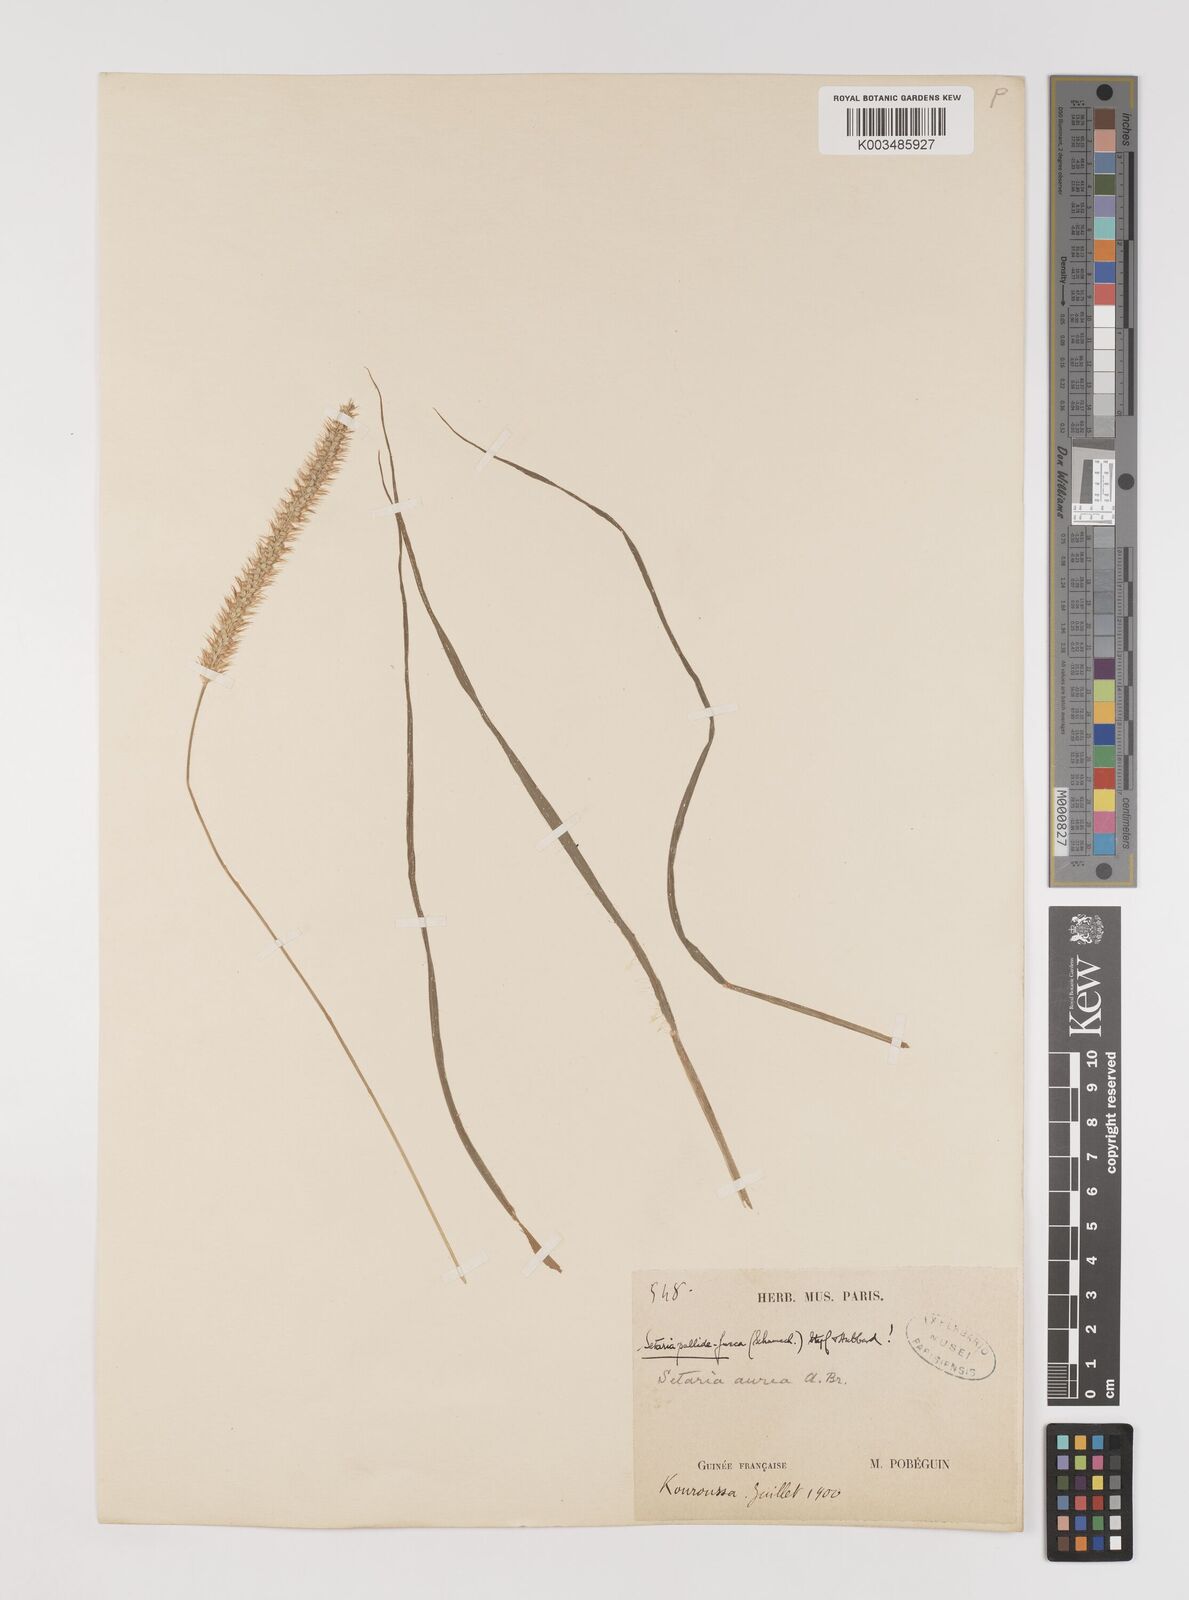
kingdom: Plantae
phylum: Tracheophyta
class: Liliopsida
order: Poales
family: Poaceae
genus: Setaria
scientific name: Setaria pumila
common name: Yellow bristle-grass
